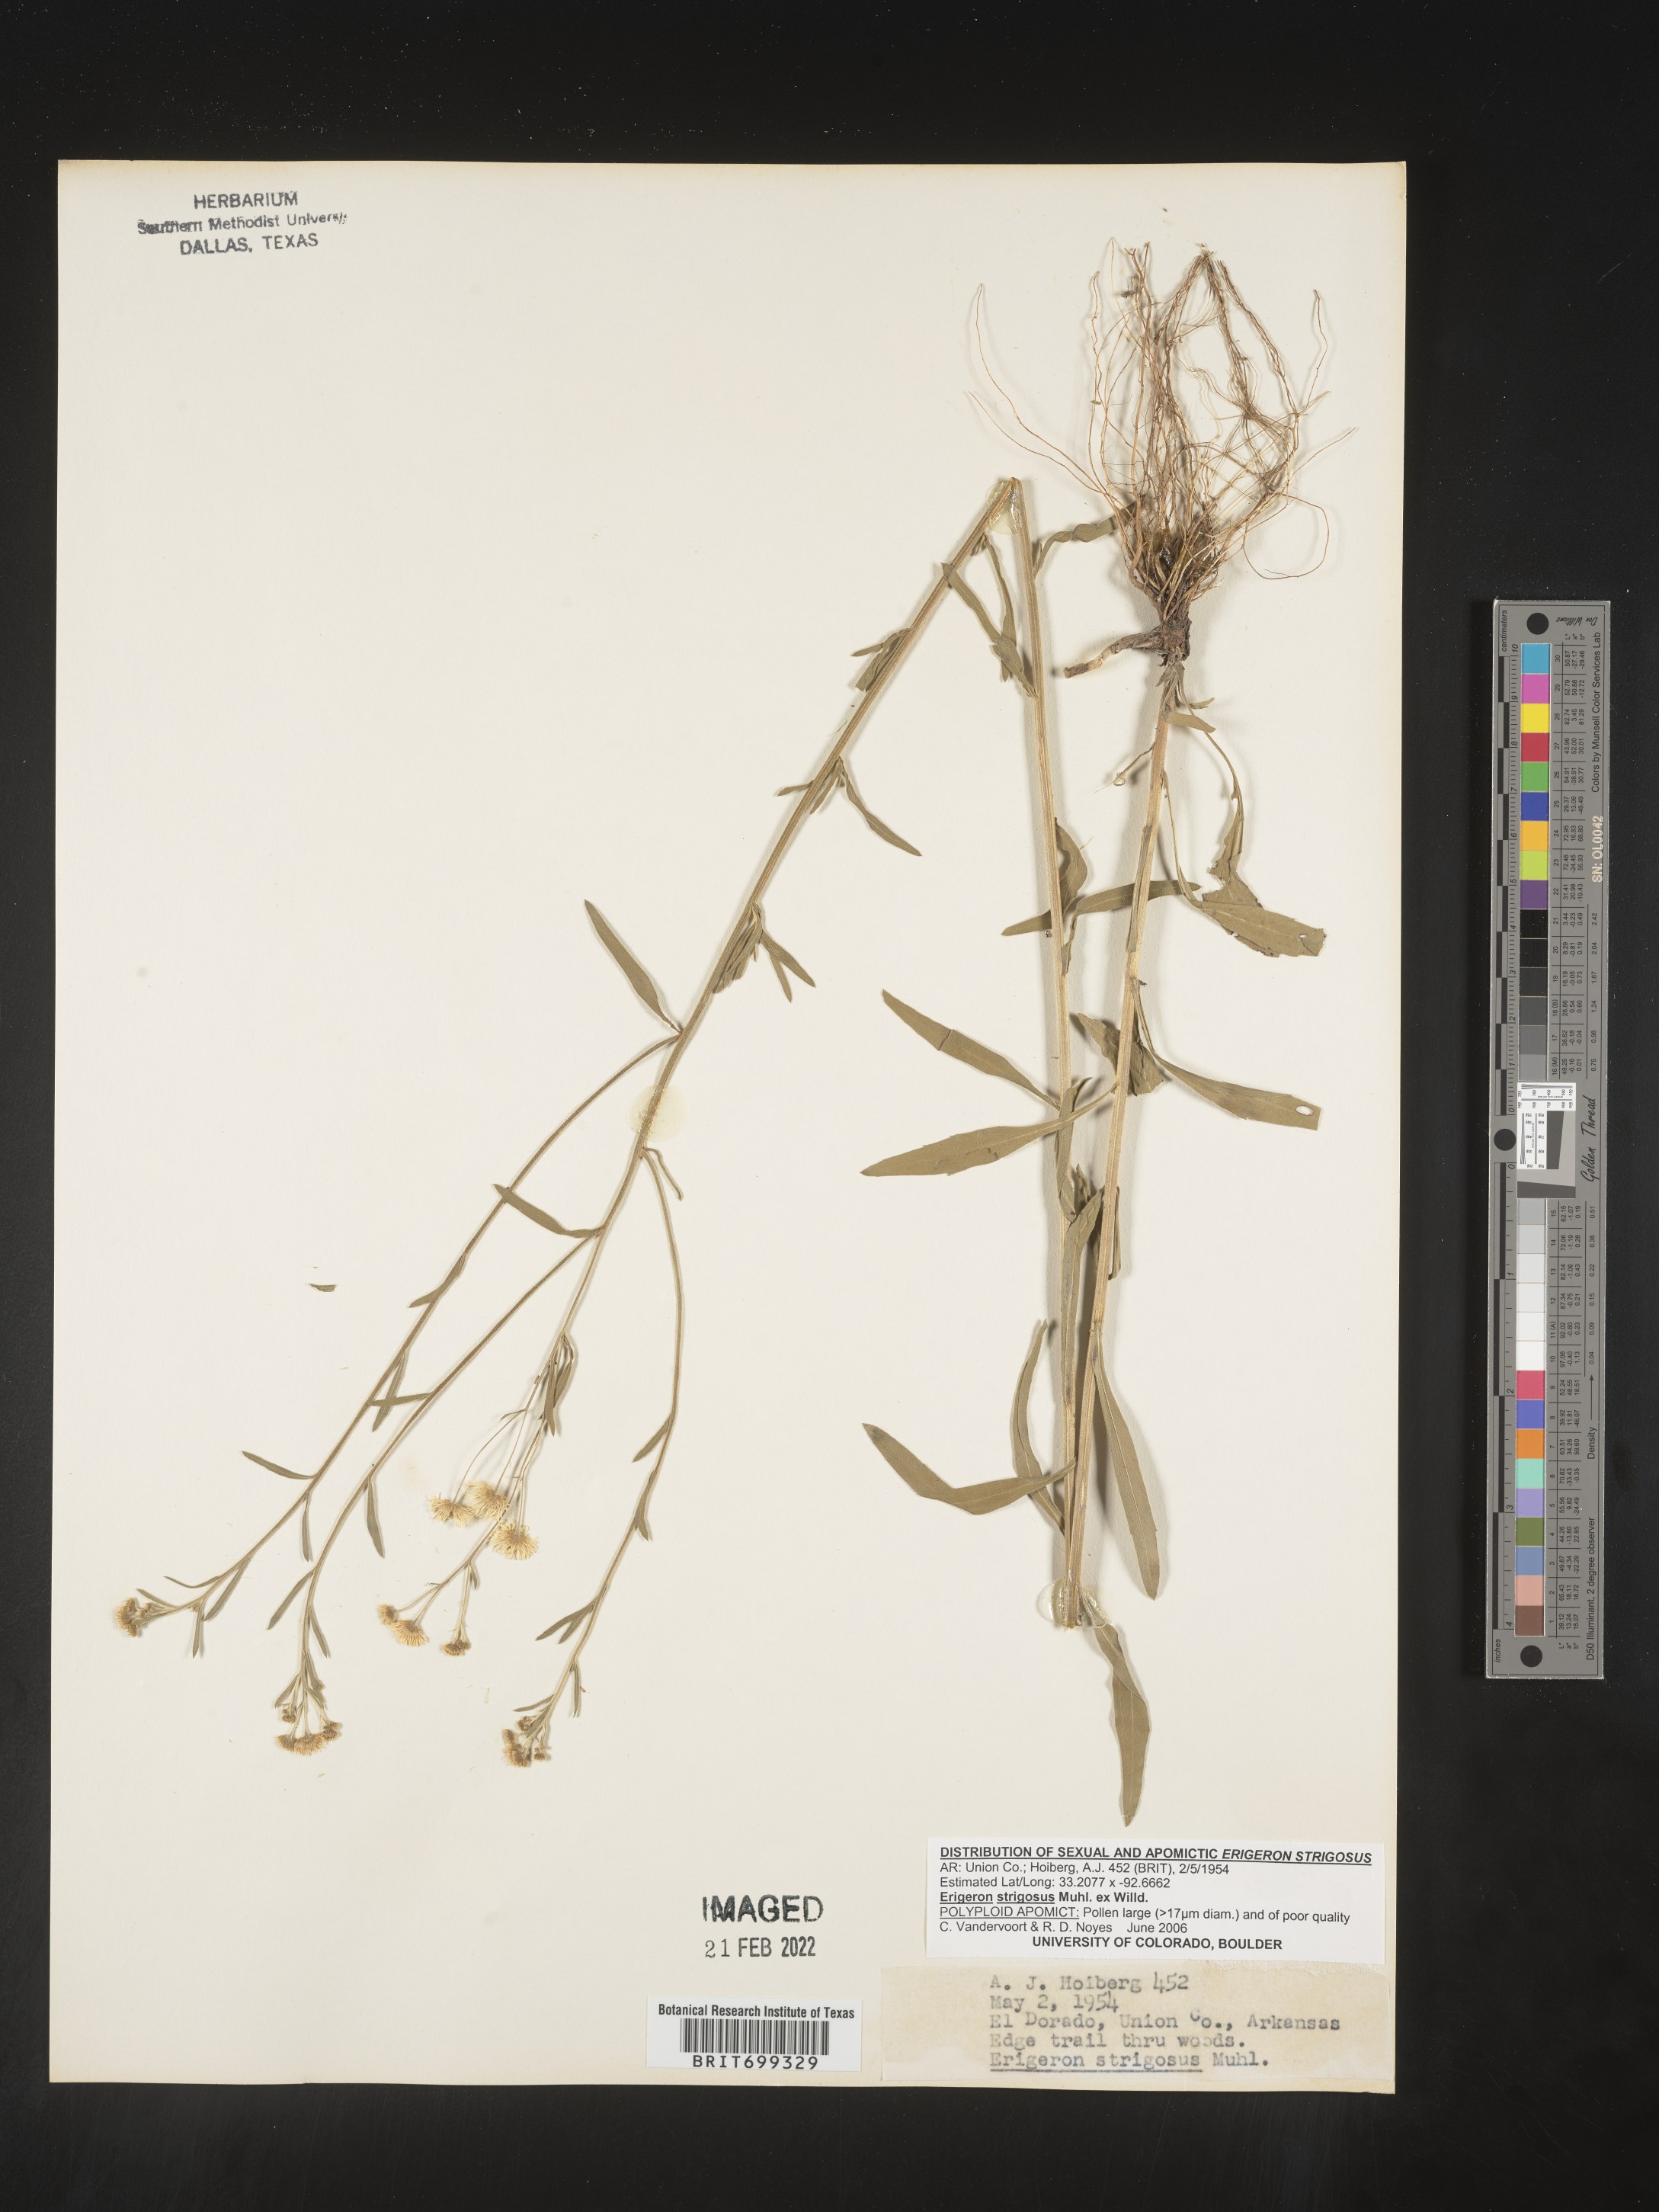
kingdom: Plantae
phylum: Tracheophyta
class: Magnoliopsida
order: Asterales
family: Asteraceae
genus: Erigeron
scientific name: Erigeron strigosus
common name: Common eastern fleabane
